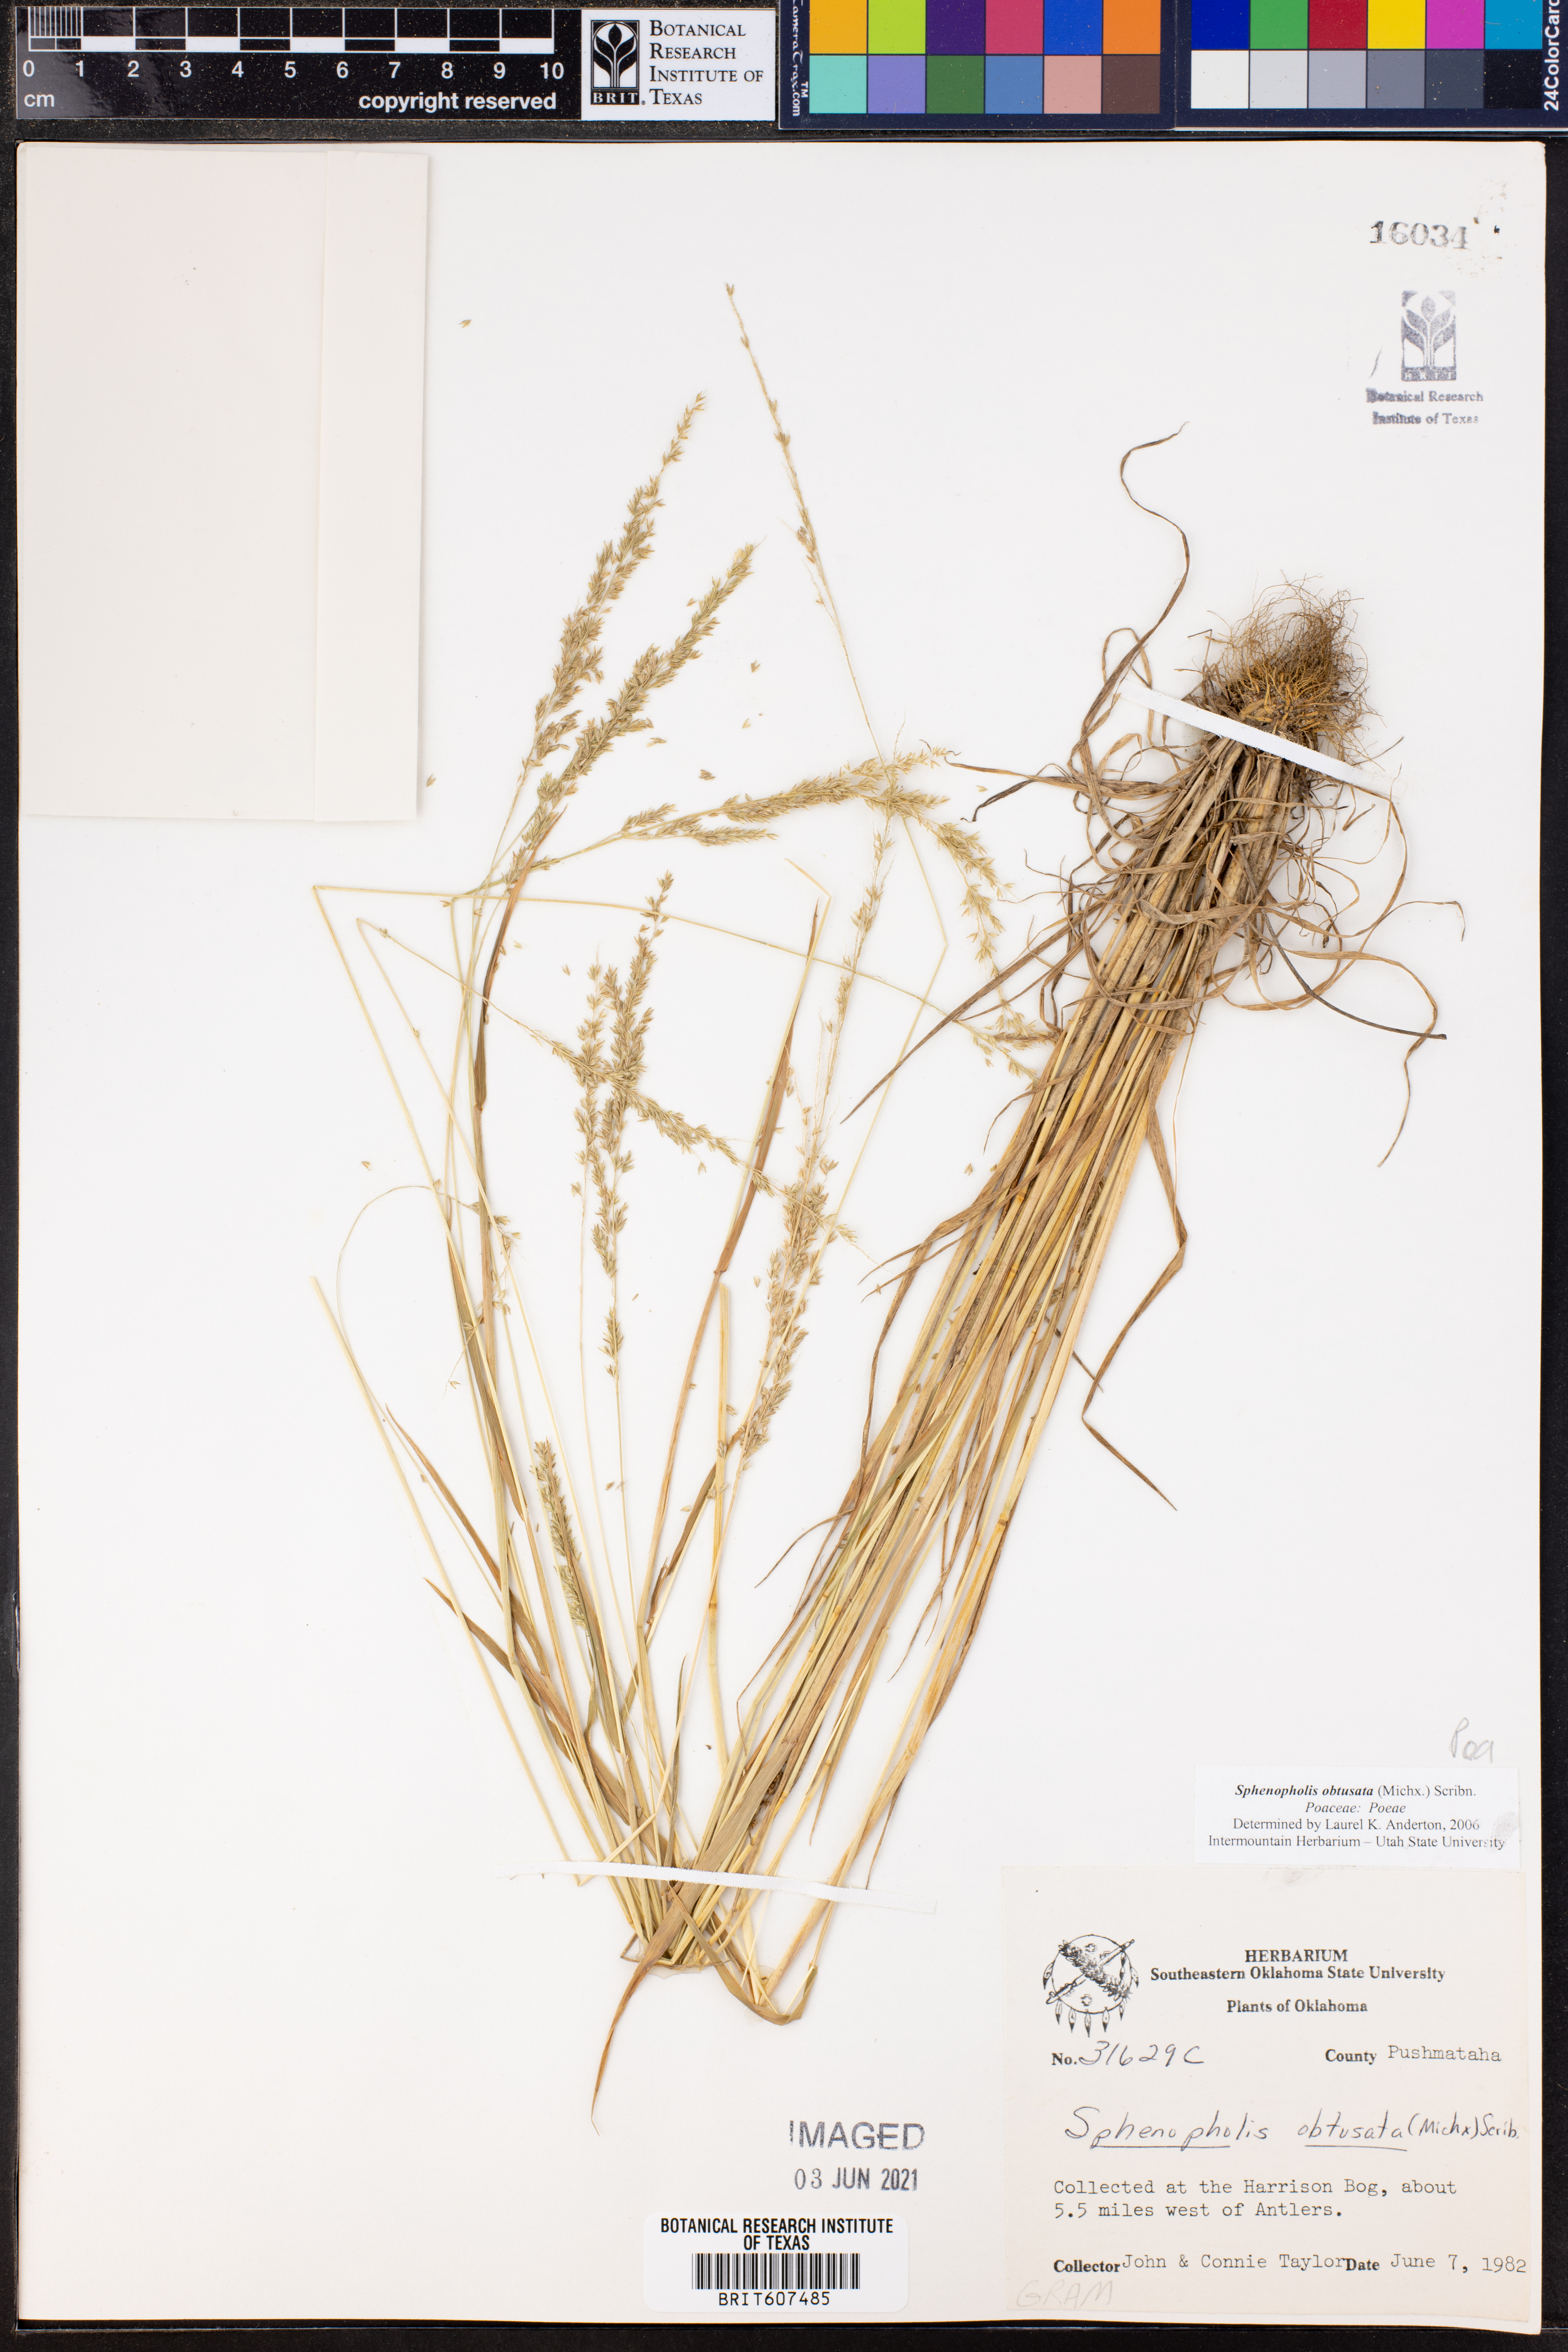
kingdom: Plantae
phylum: Tracheophyta
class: Liliopsida
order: Poales
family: Poaceae
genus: Sphenopholis
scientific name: Sphenopholis obtusata
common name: Prairie grass
